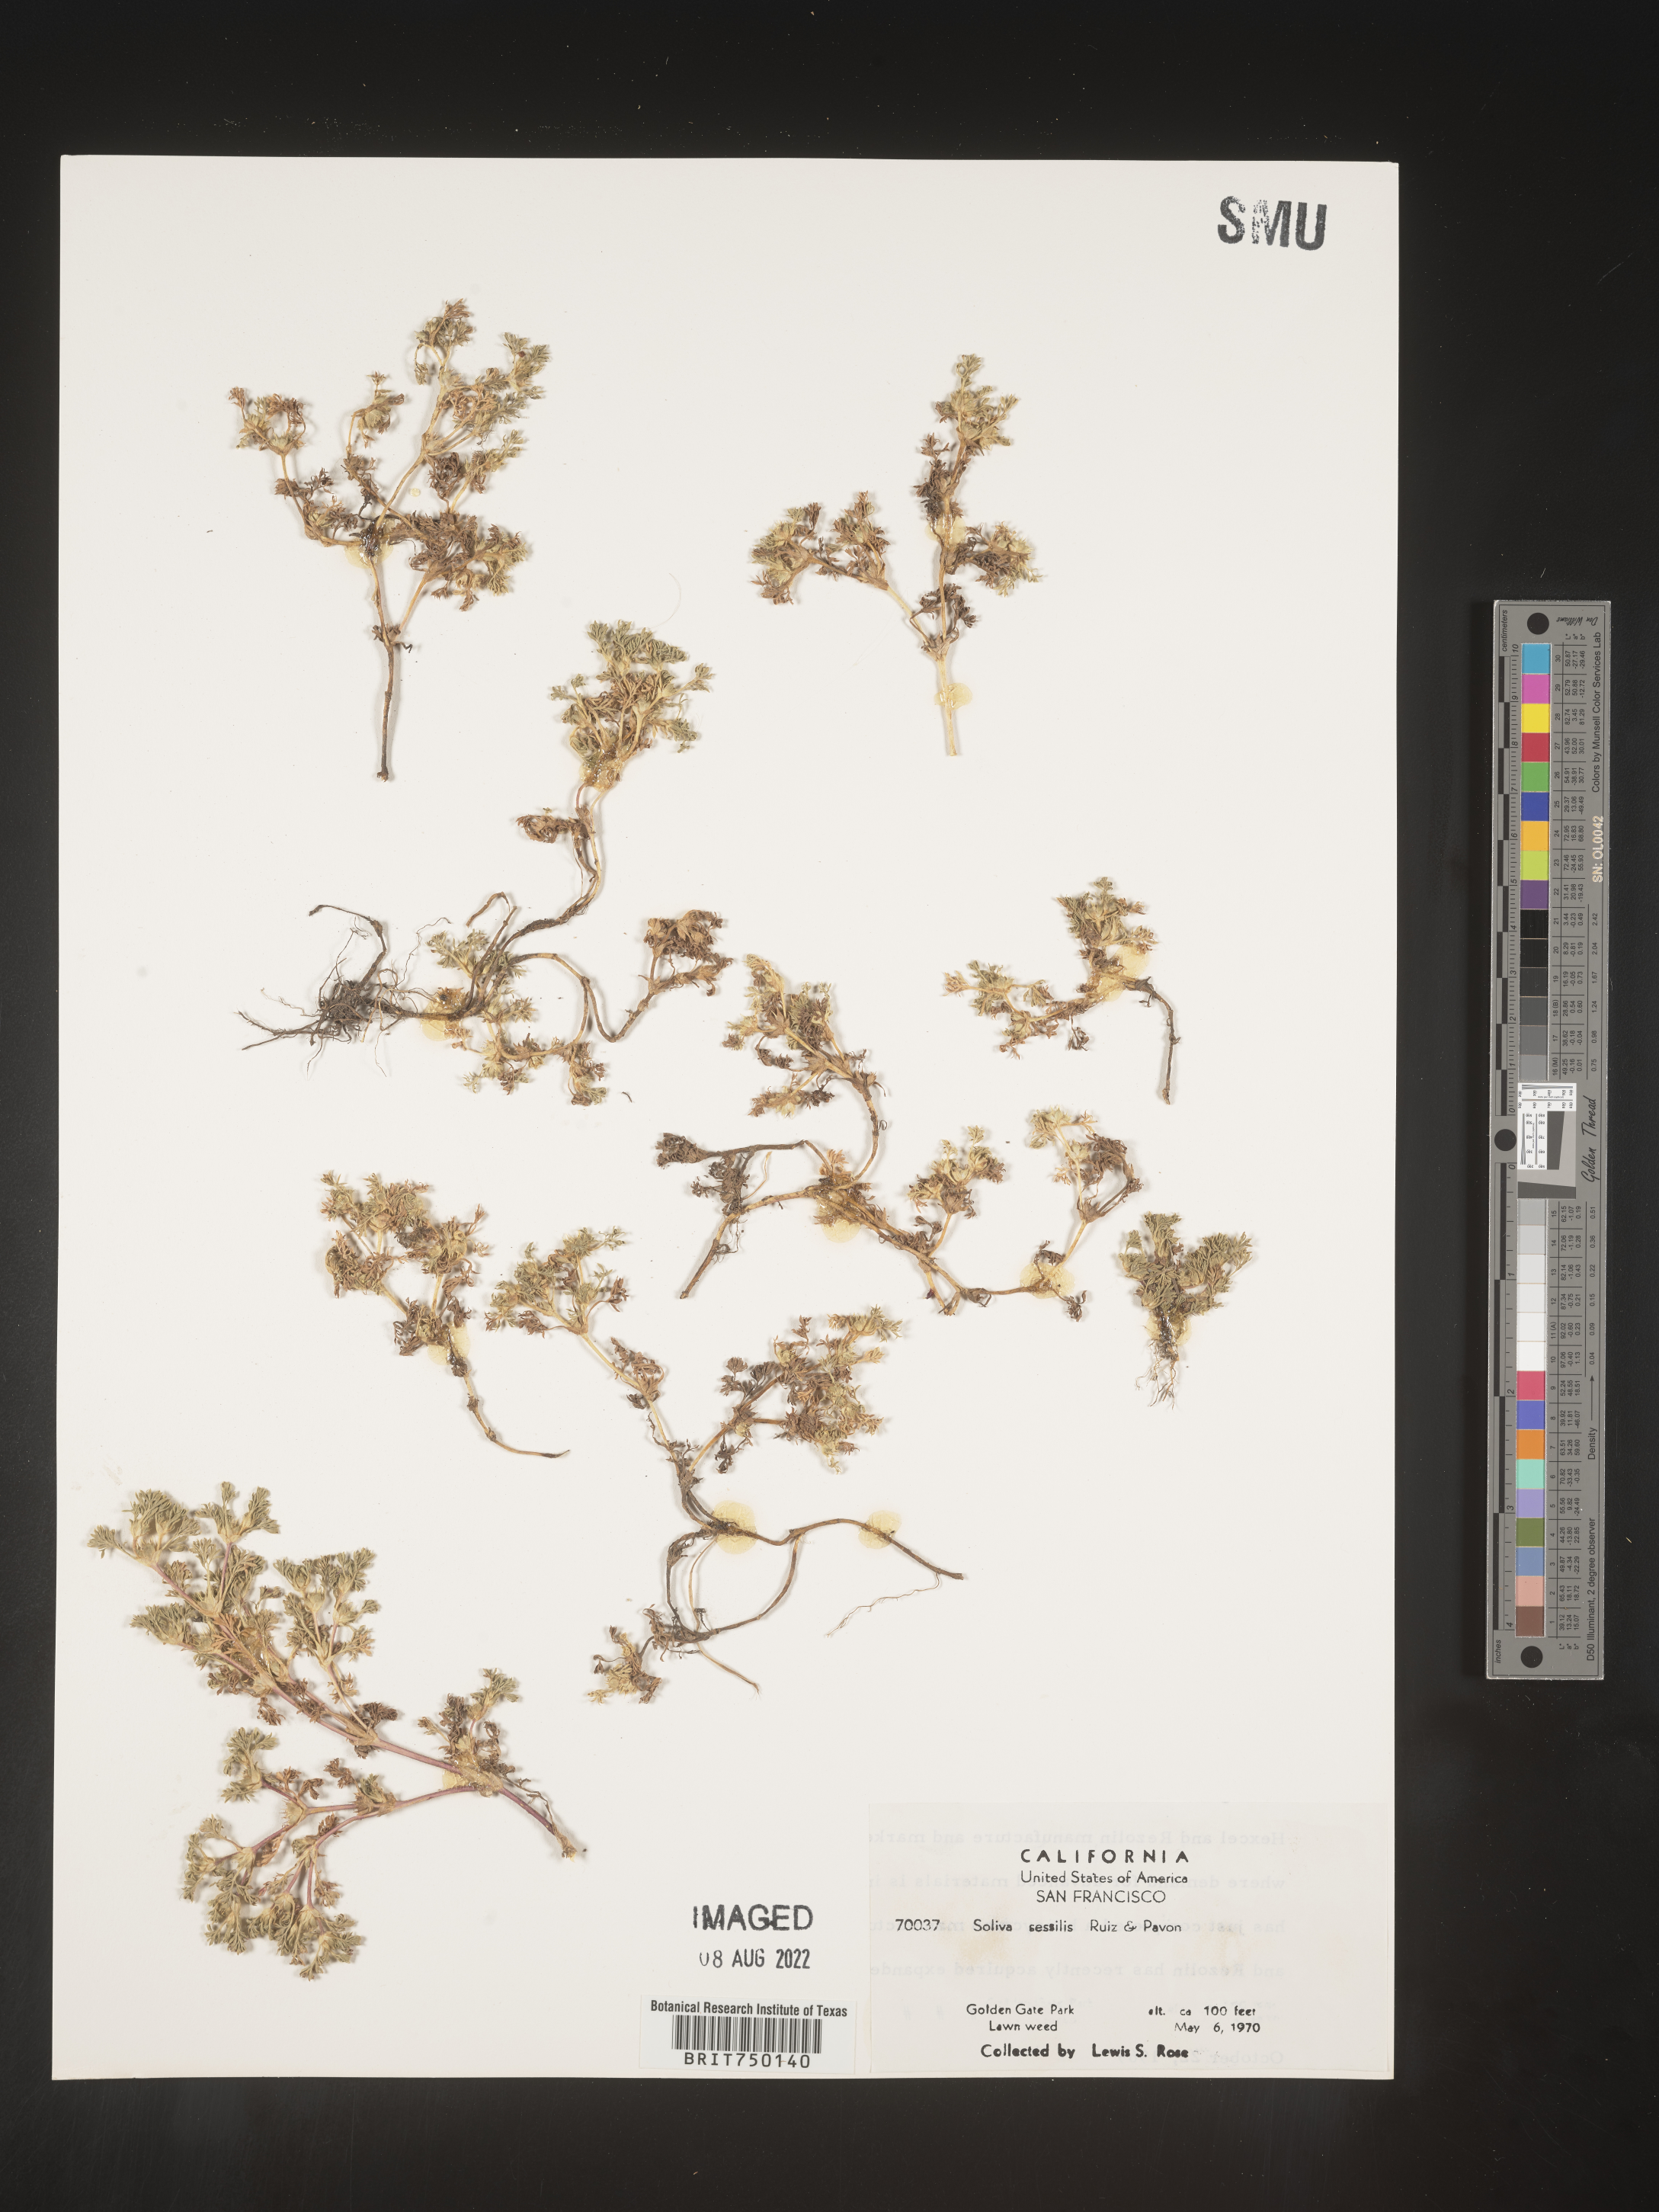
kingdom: Plantae
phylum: Tracheophyta
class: Magnoliopsida
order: Asterales
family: Asteraceae
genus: Soliva
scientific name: Soliva
